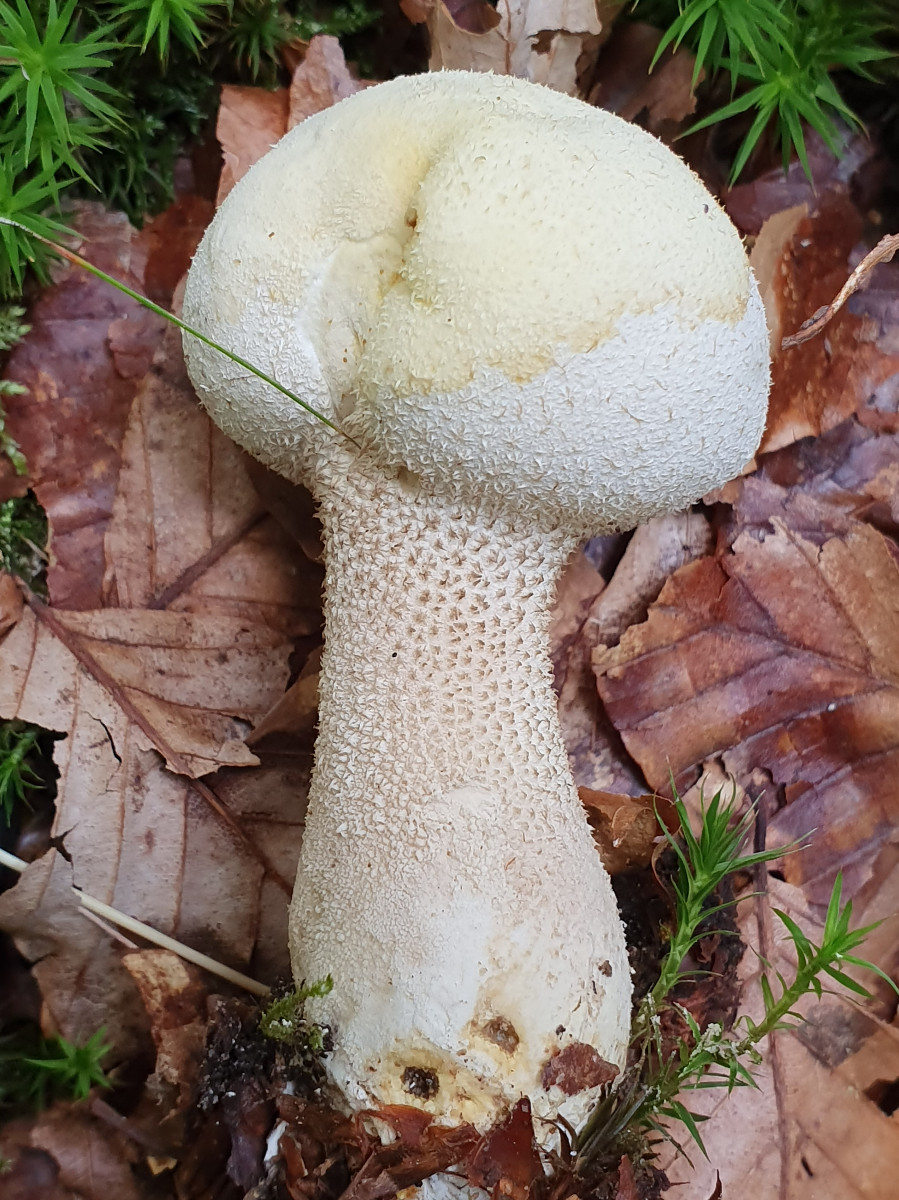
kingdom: Fungi
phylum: Basidiomycota
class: Agaricomycetes
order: Agaricales
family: Lycoperdaceae
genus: Lycoperdon
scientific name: Lycoperdon excipuliforme
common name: højstokket støvbold
